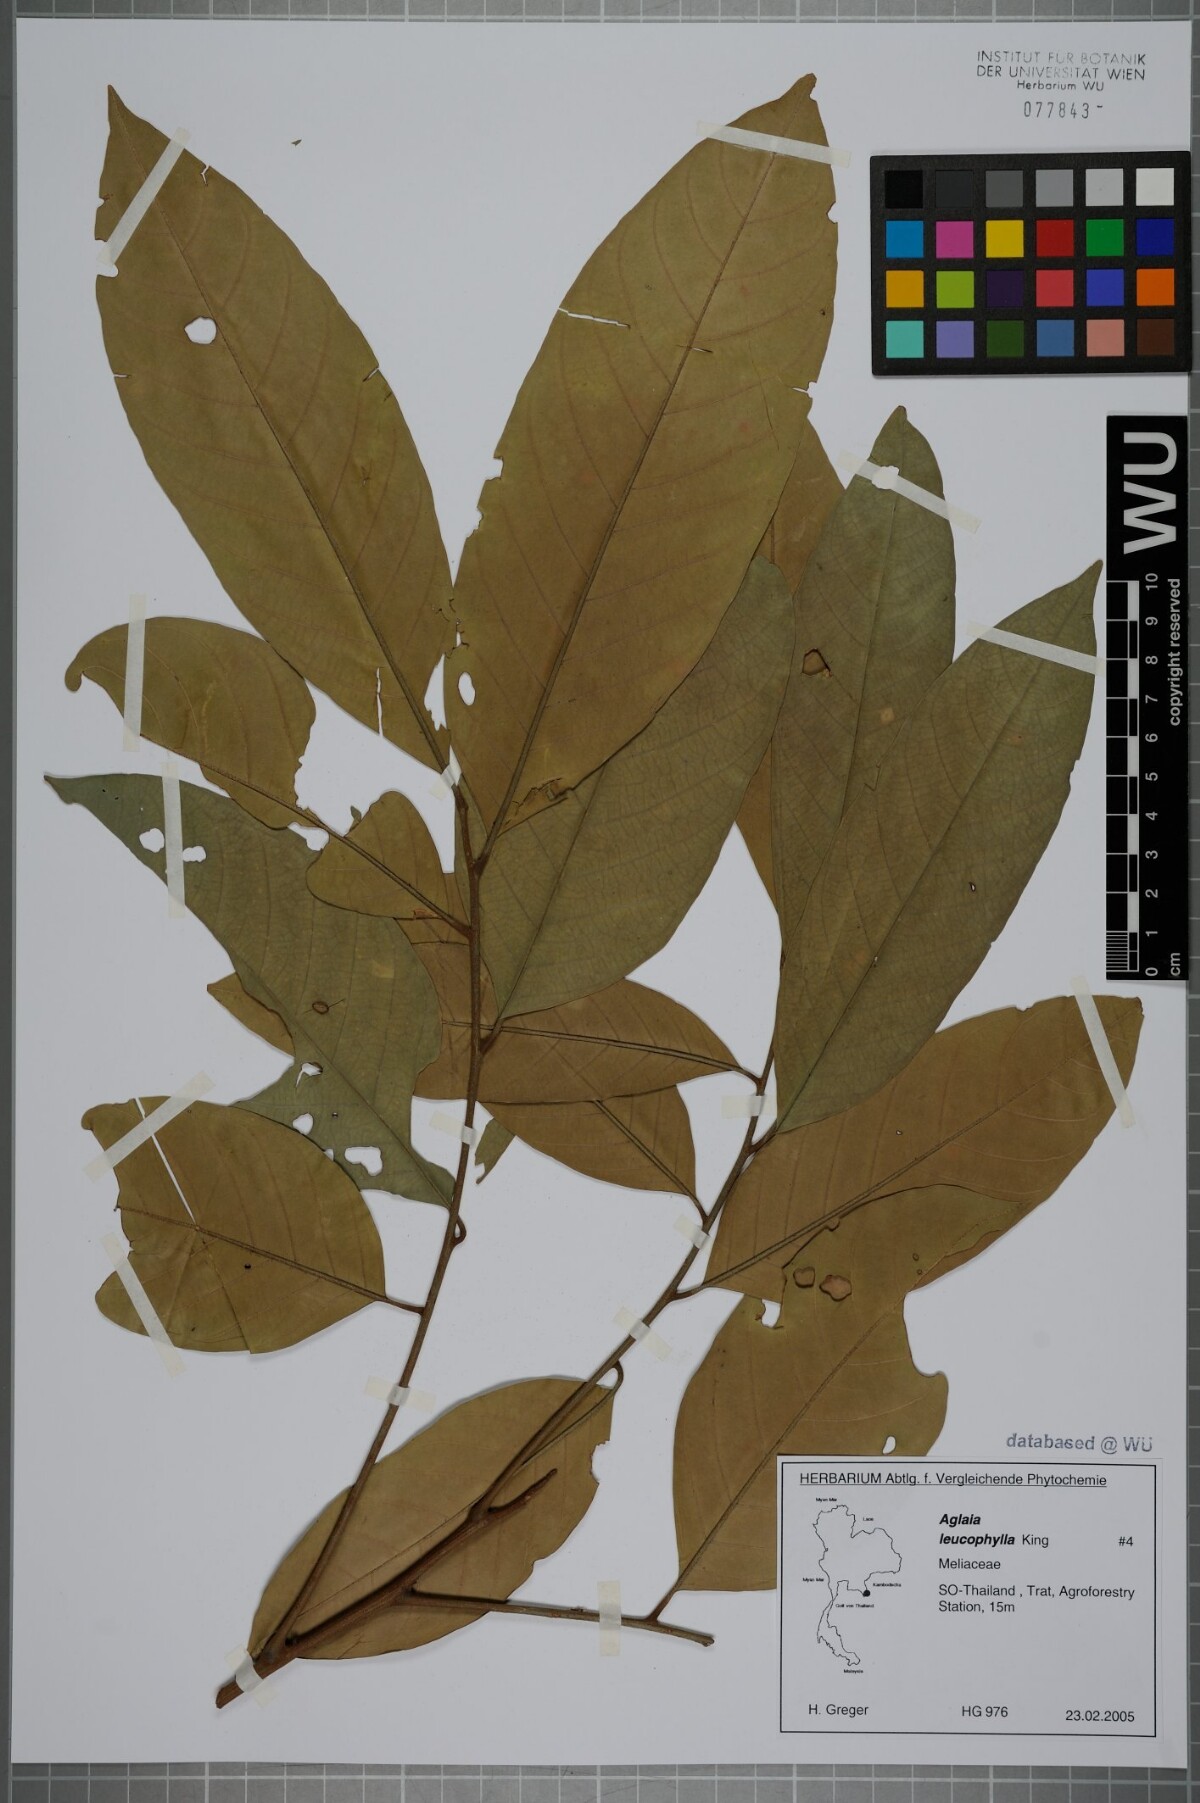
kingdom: Plantae
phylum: Tracheophyta
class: Magnoliopsida
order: Sapindales
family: Meliaceae
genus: Aglaia
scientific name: Aglaia leucophylla
